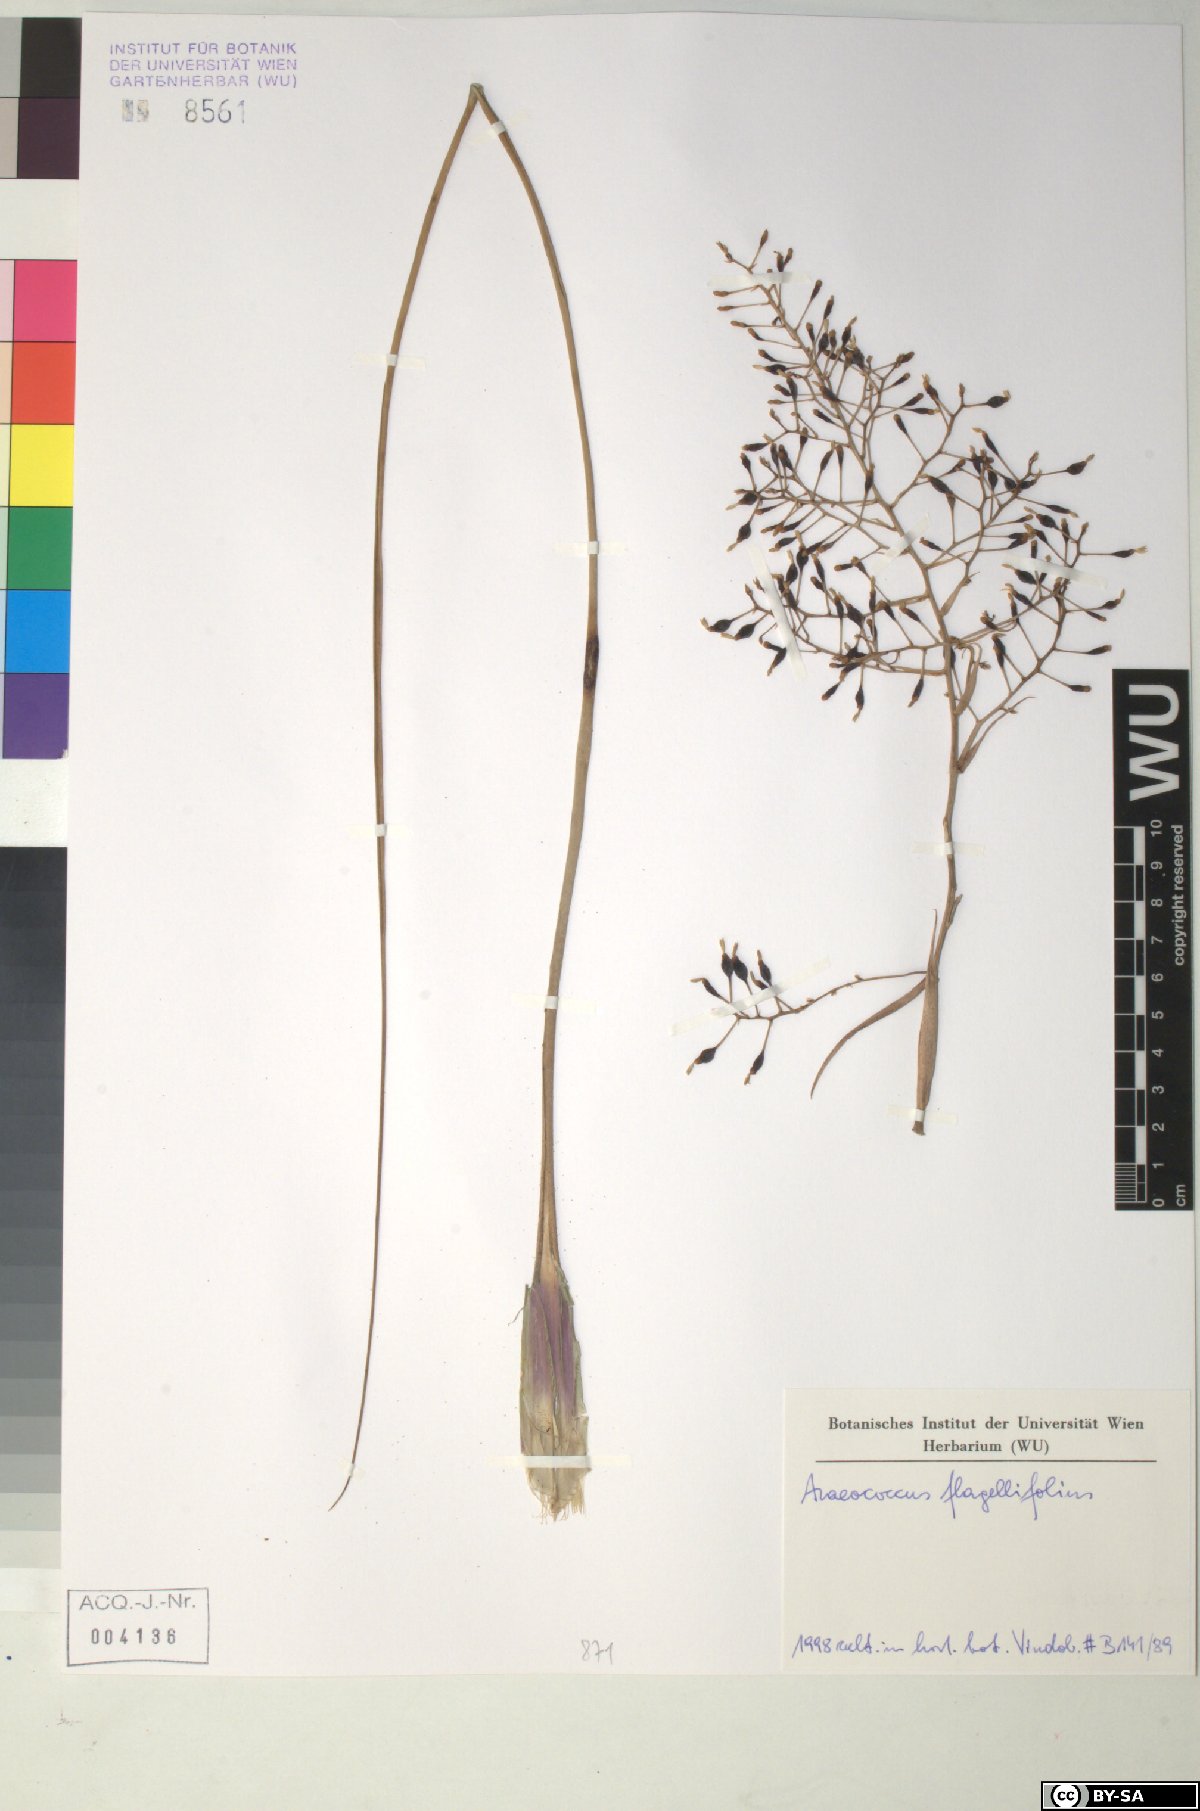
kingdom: Plantae
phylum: Tracheophyta
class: Liliopsida
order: Poales
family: Bromeliaceae
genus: Araeococcus
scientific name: Araeococcus flagellifolius
